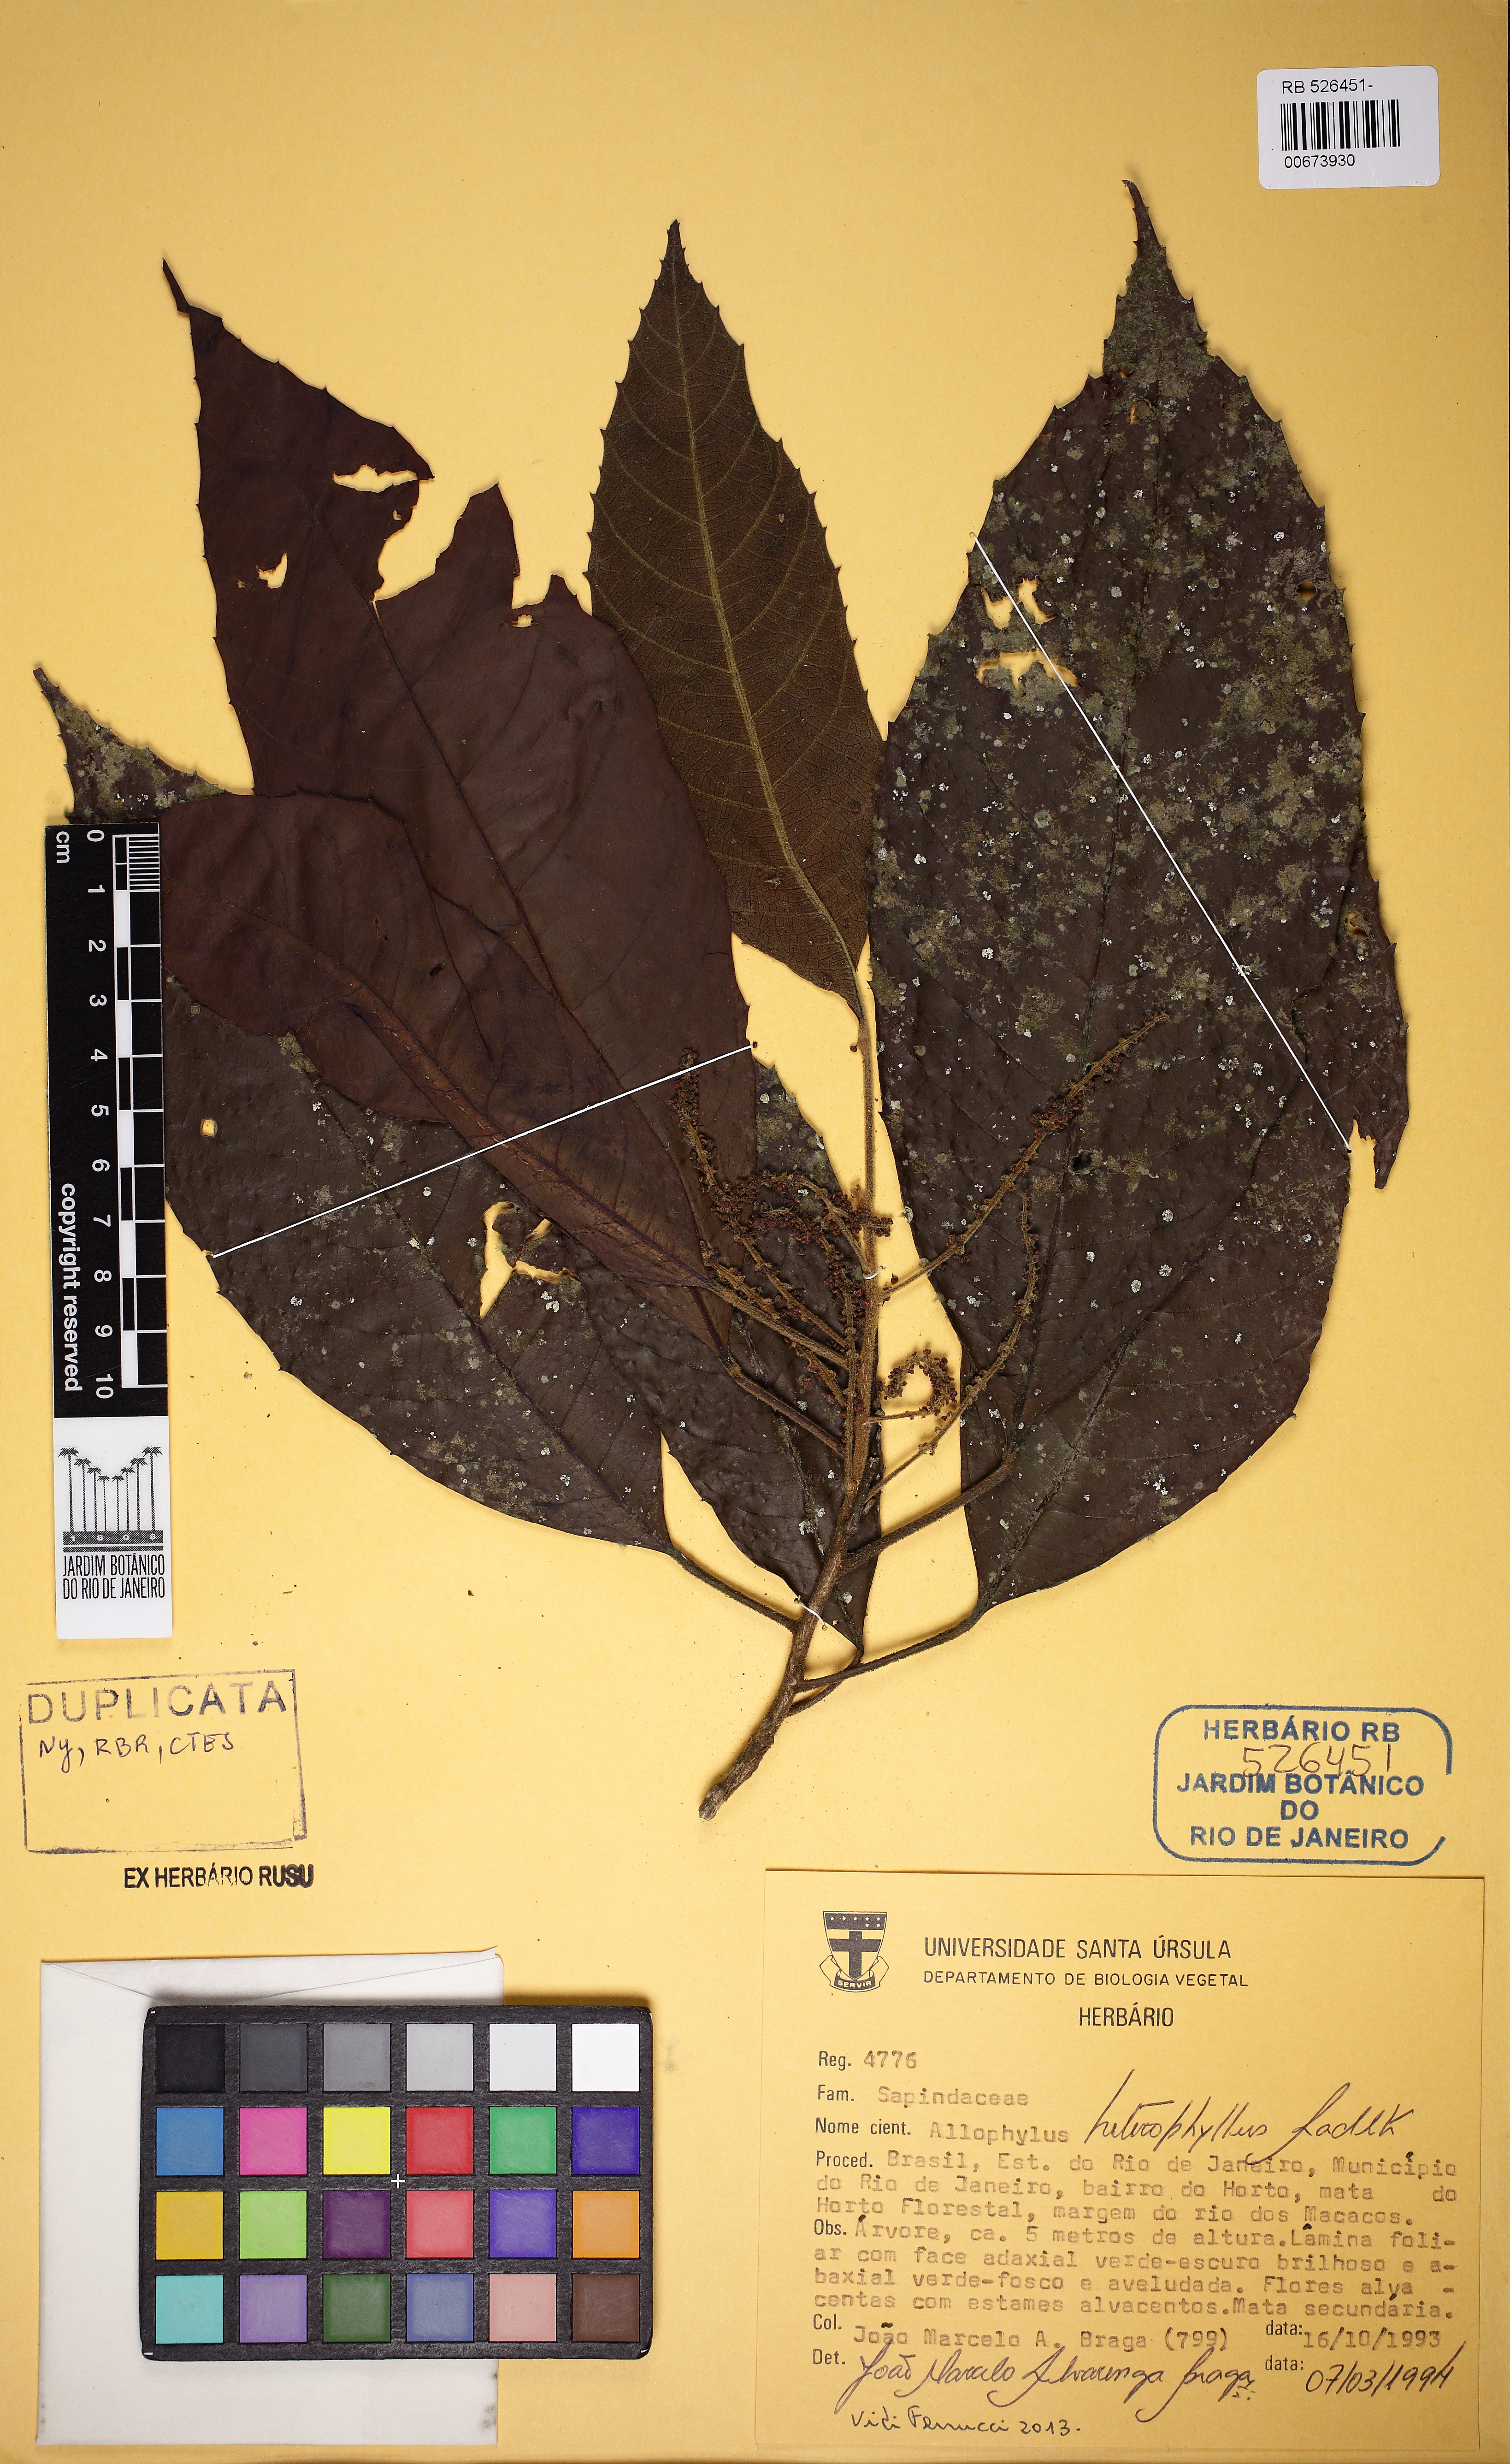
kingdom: Plantae
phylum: Tracheophyta
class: Magnoliopsida
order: Sapindales
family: Sapindaceae
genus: Allophylus
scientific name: Allophylus heterophyllus
